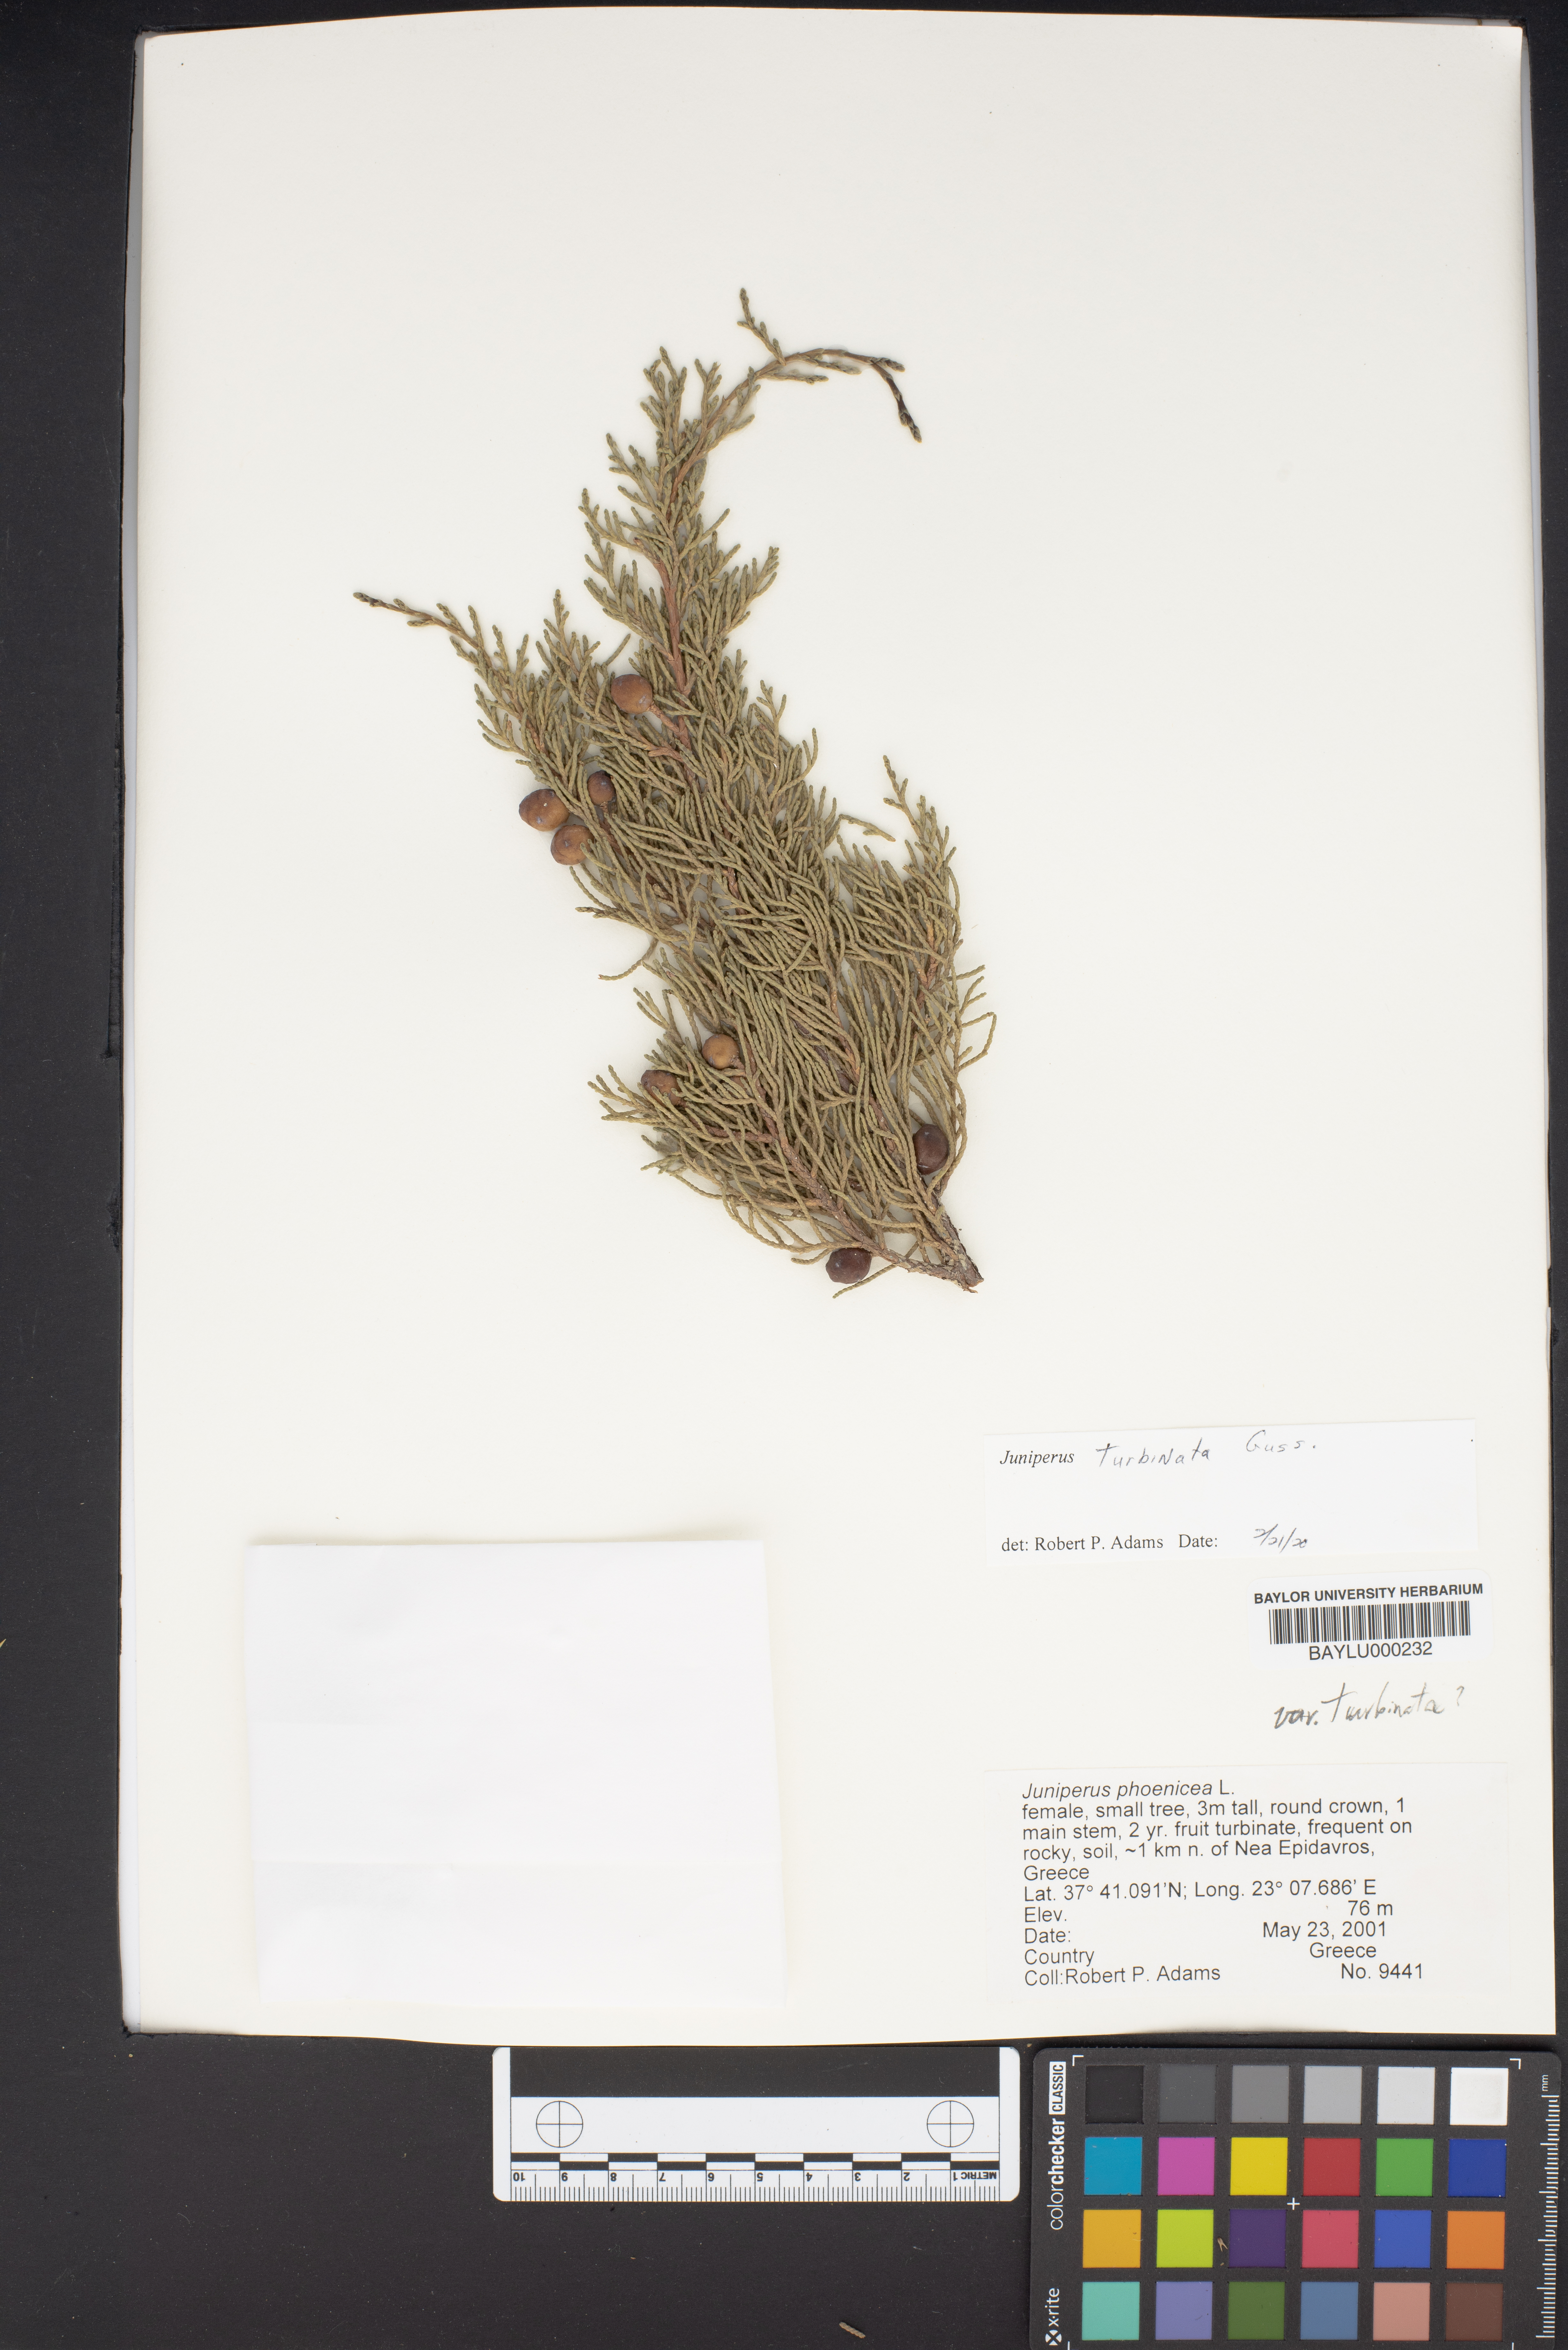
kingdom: Plantae
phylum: Tracheophyta
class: Pinopsida
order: Pinales
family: Cupressaceae
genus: Juniperus
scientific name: Juniperus phoenicea
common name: Phoenician juniper
